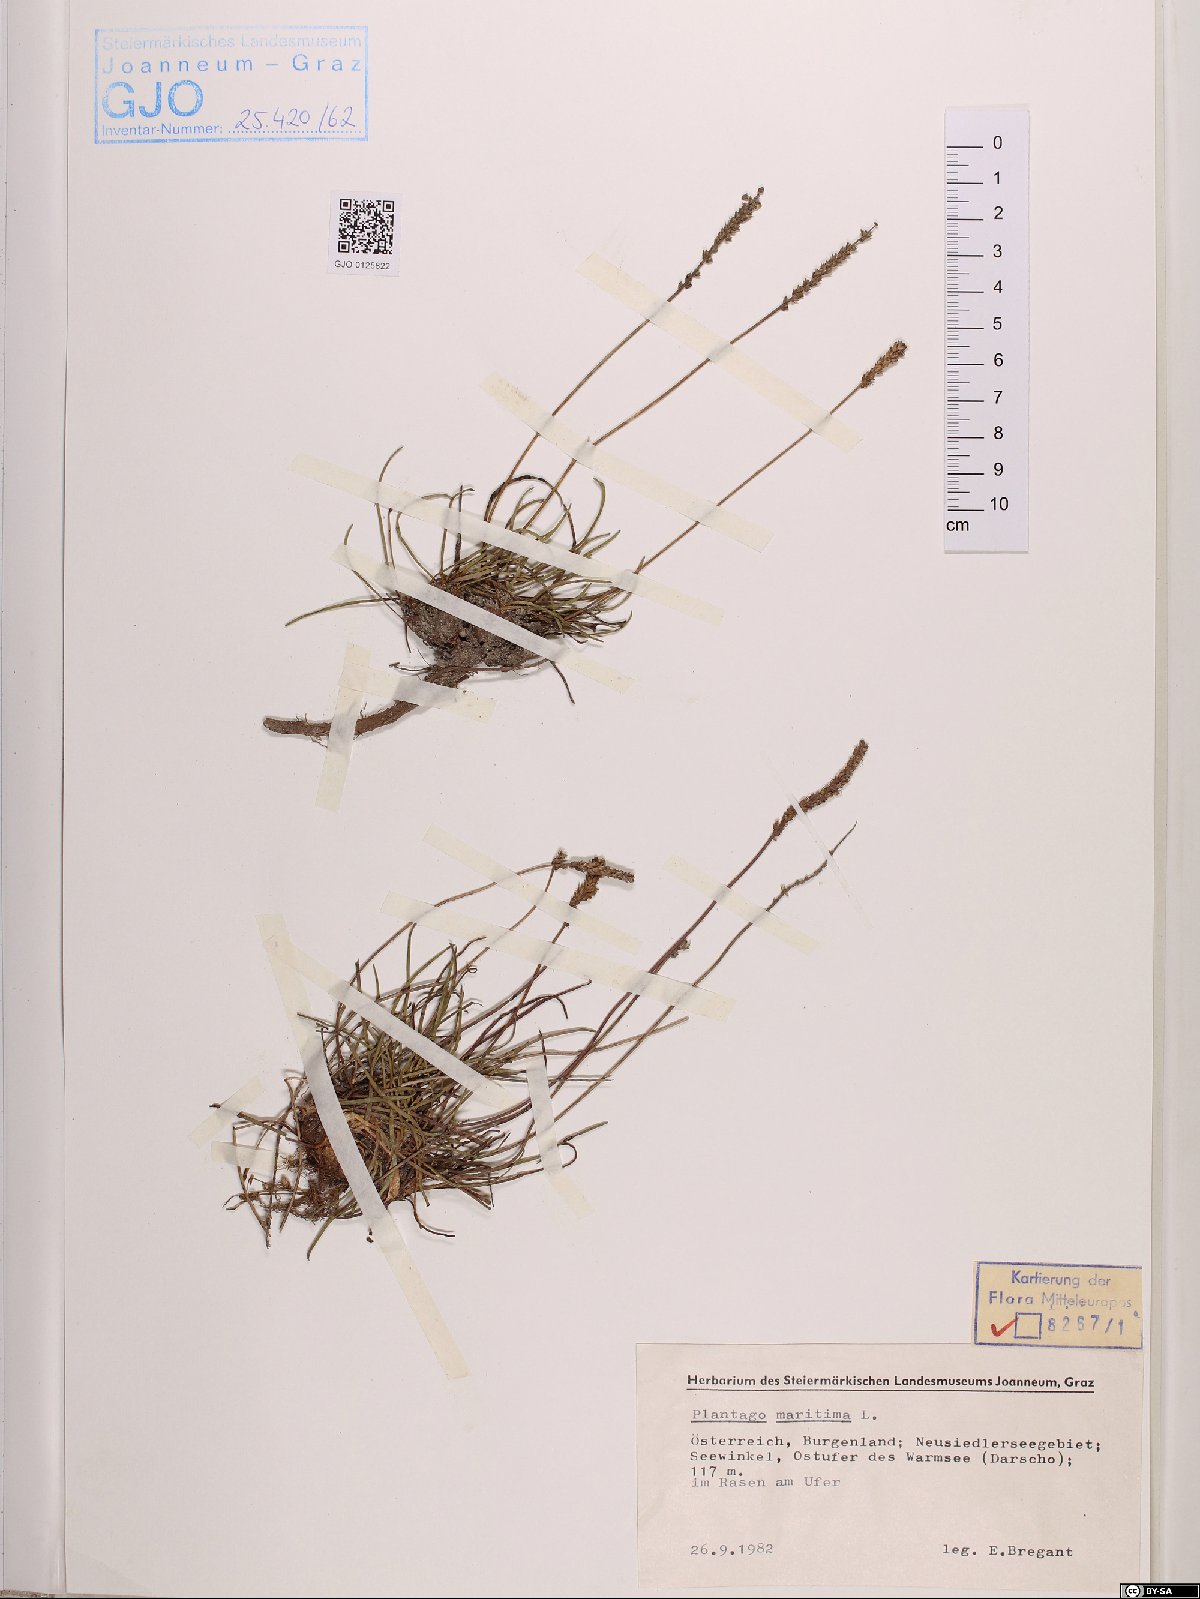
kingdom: Plantae
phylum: Tracheophyta
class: Magnoliopsida
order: Lamiales
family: Plantaginaceae
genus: Plantago
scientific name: Plantago maritima
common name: Sea plantain
